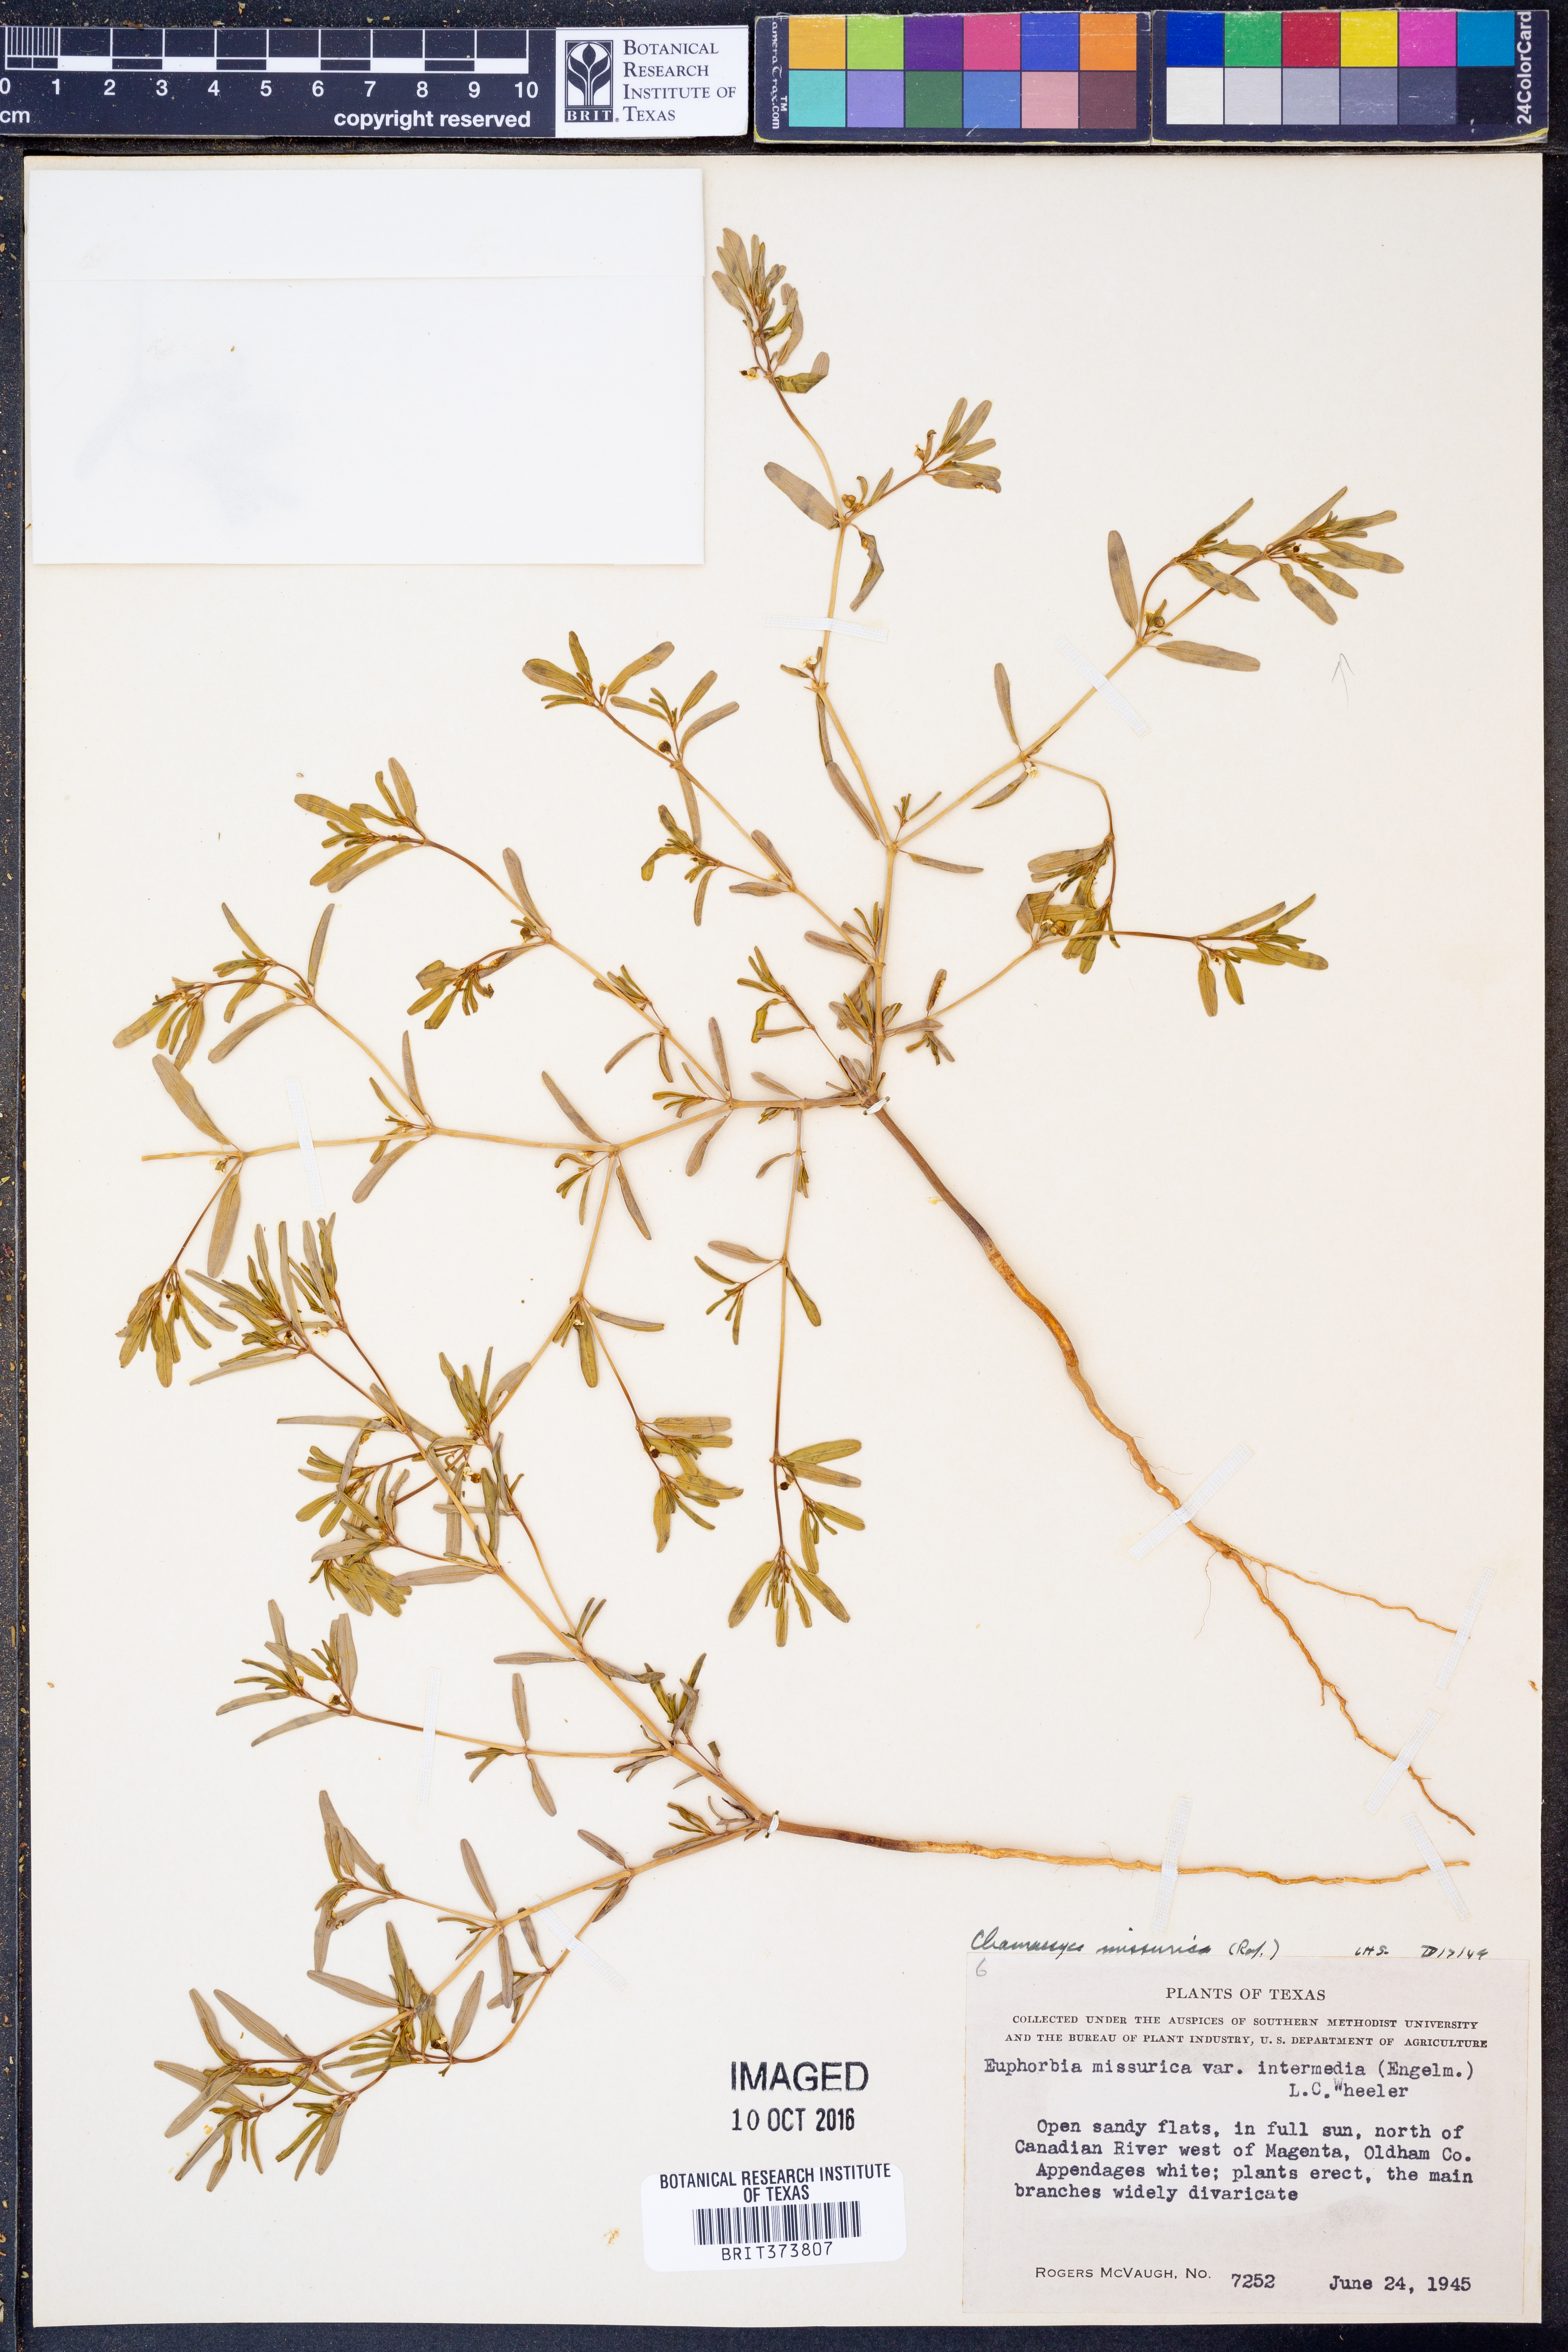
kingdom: Plantae
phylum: Tracheophyta
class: Magnoliopsida
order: Malpighiales
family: Euphorbiaceae
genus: Euphorbia
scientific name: Euphorbia missurica
